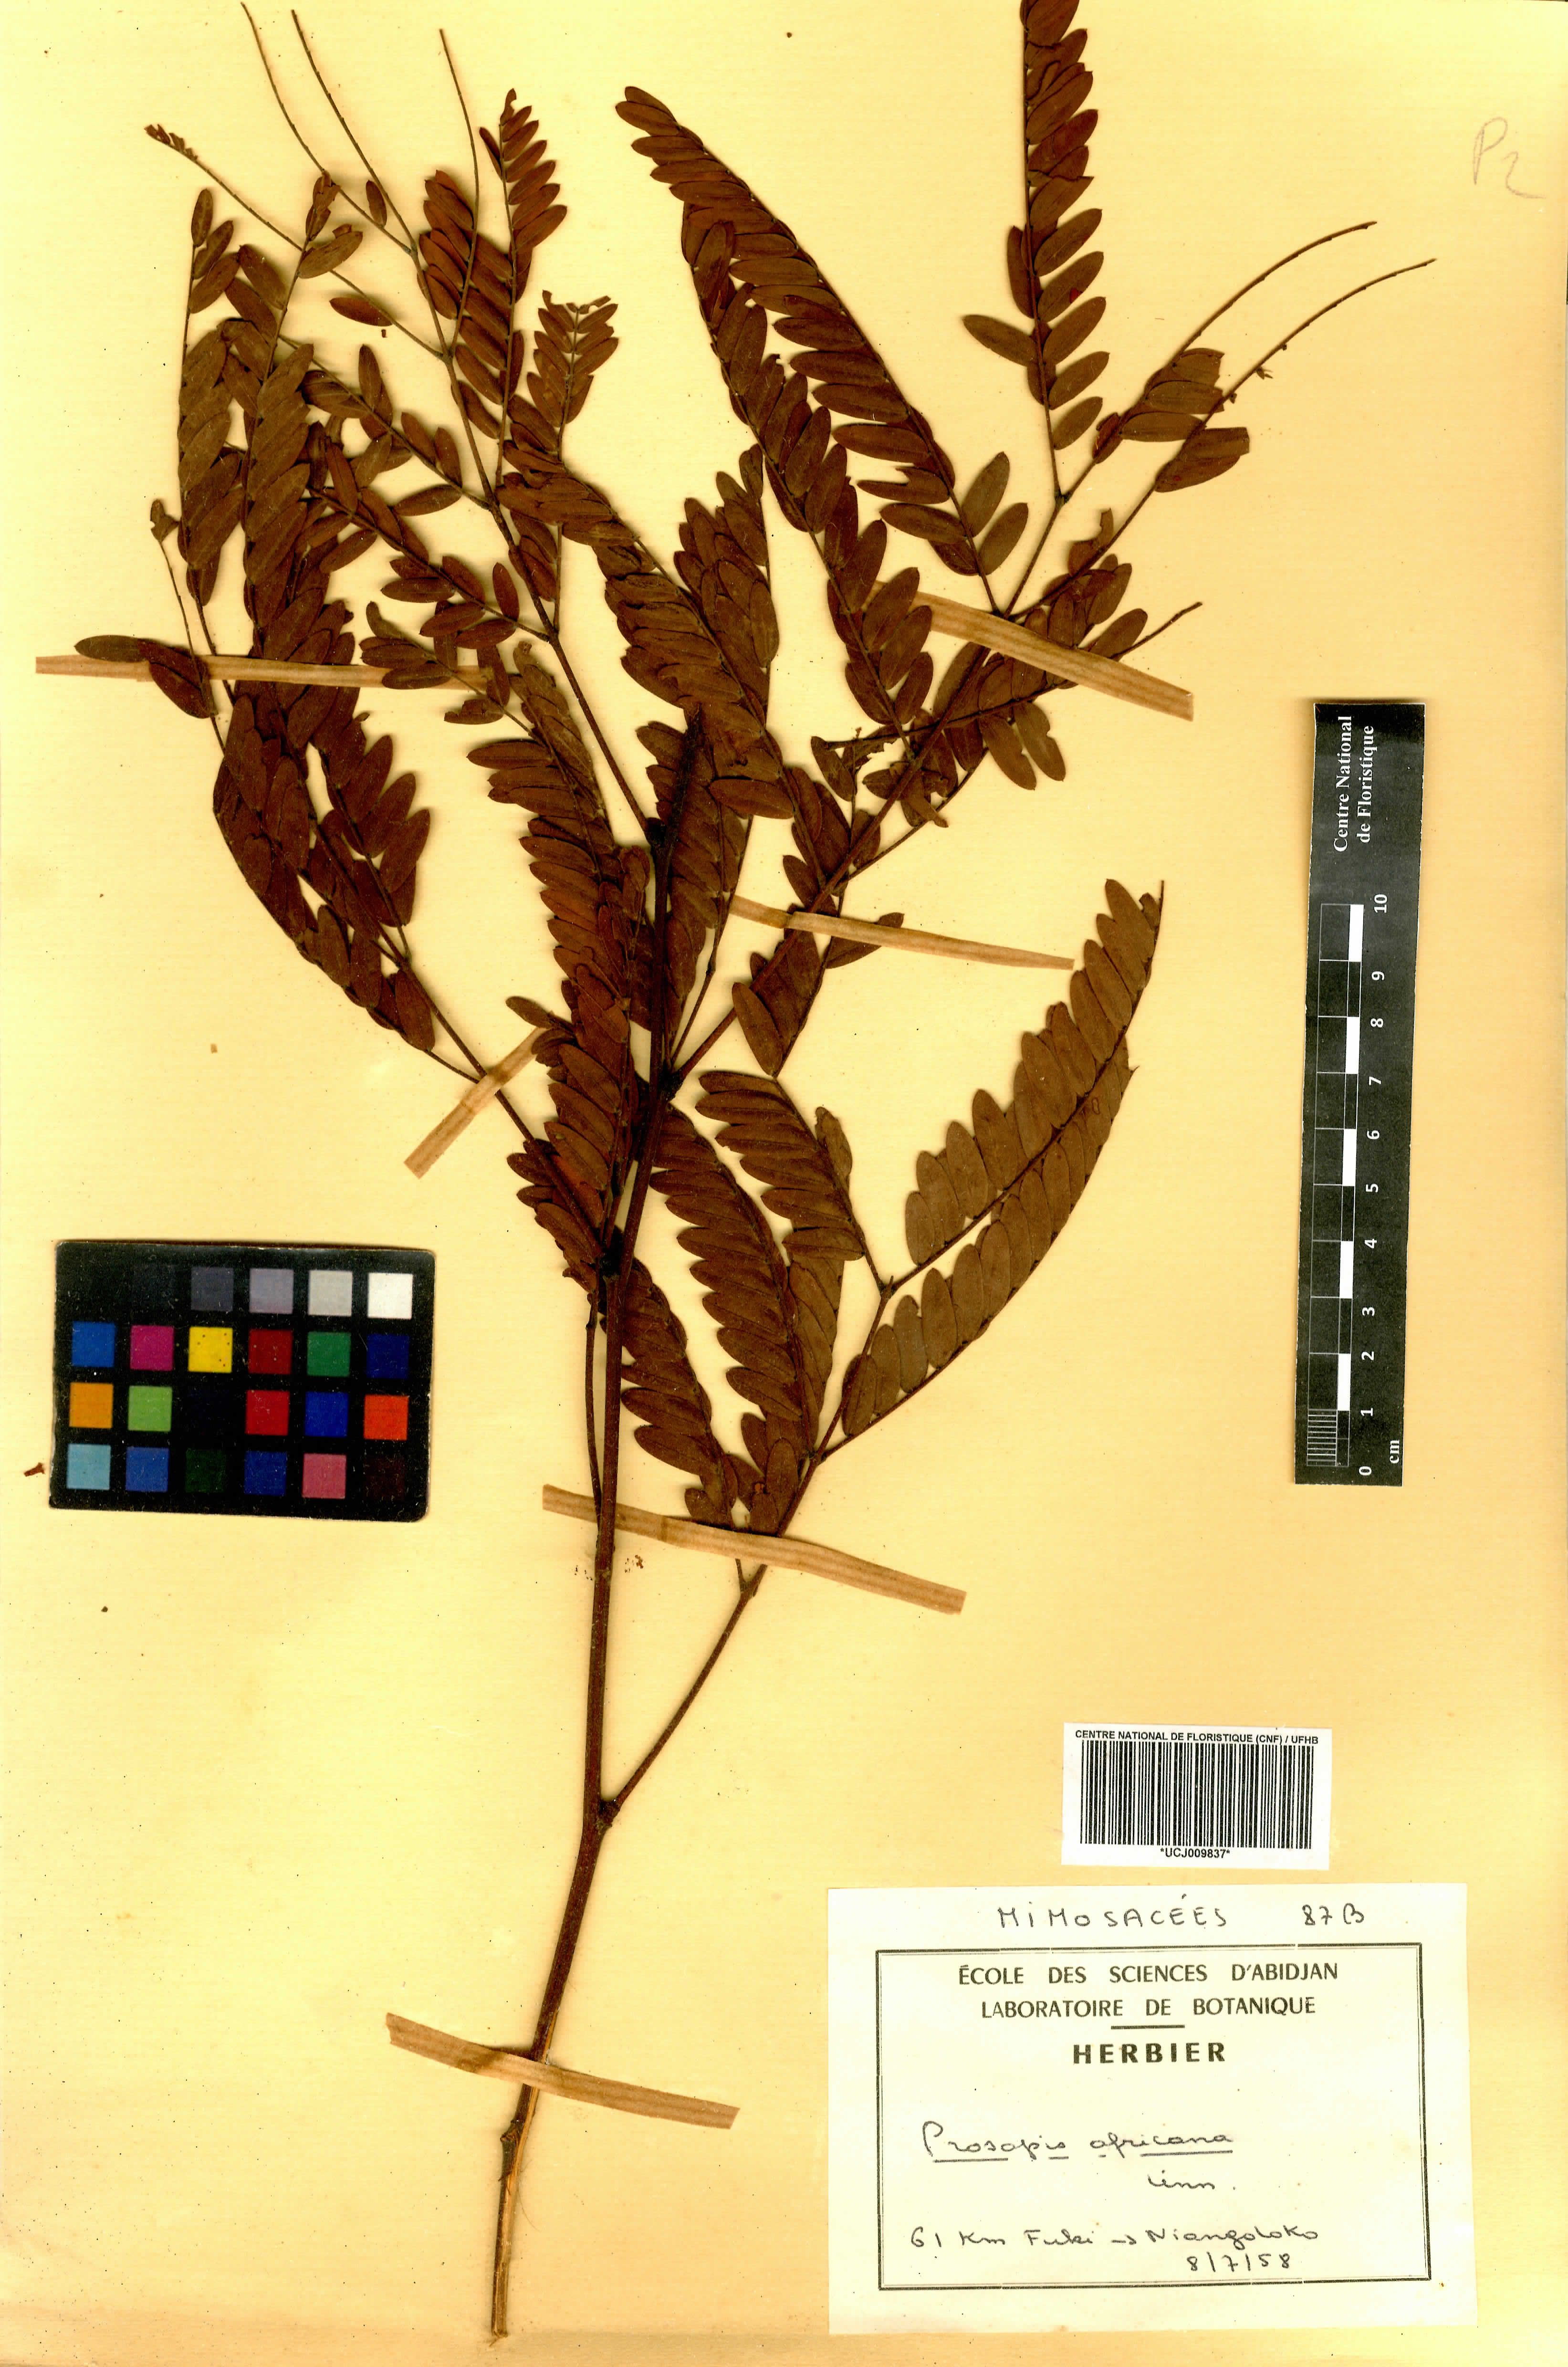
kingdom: Plantae
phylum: Tracheophyta
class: Magnoliopsida
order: Fabales
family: Fabaceae
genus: Prosopis
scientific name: Prosopis africana
